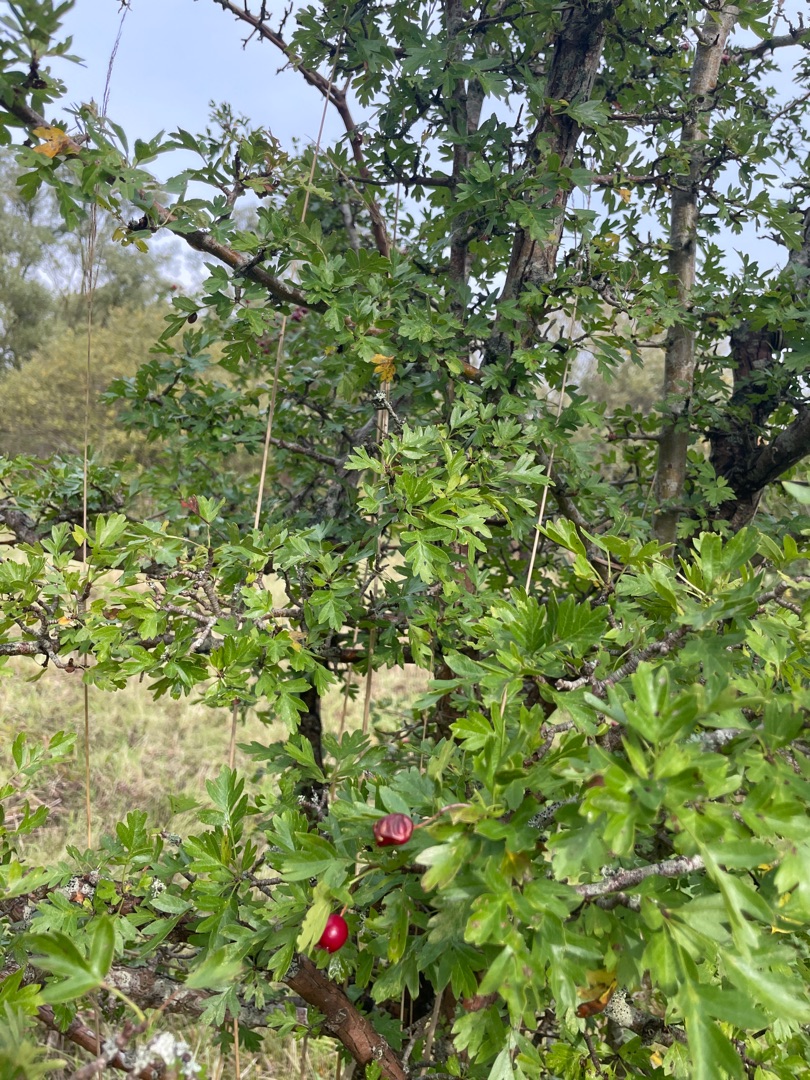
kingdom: Plantae
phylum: Tracheophyta
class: Magnoliopsida
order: Rosales
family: Rosaceae
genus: Crataegus
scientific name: Crataegus monogyna
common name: Engriflet hvidtjørn
